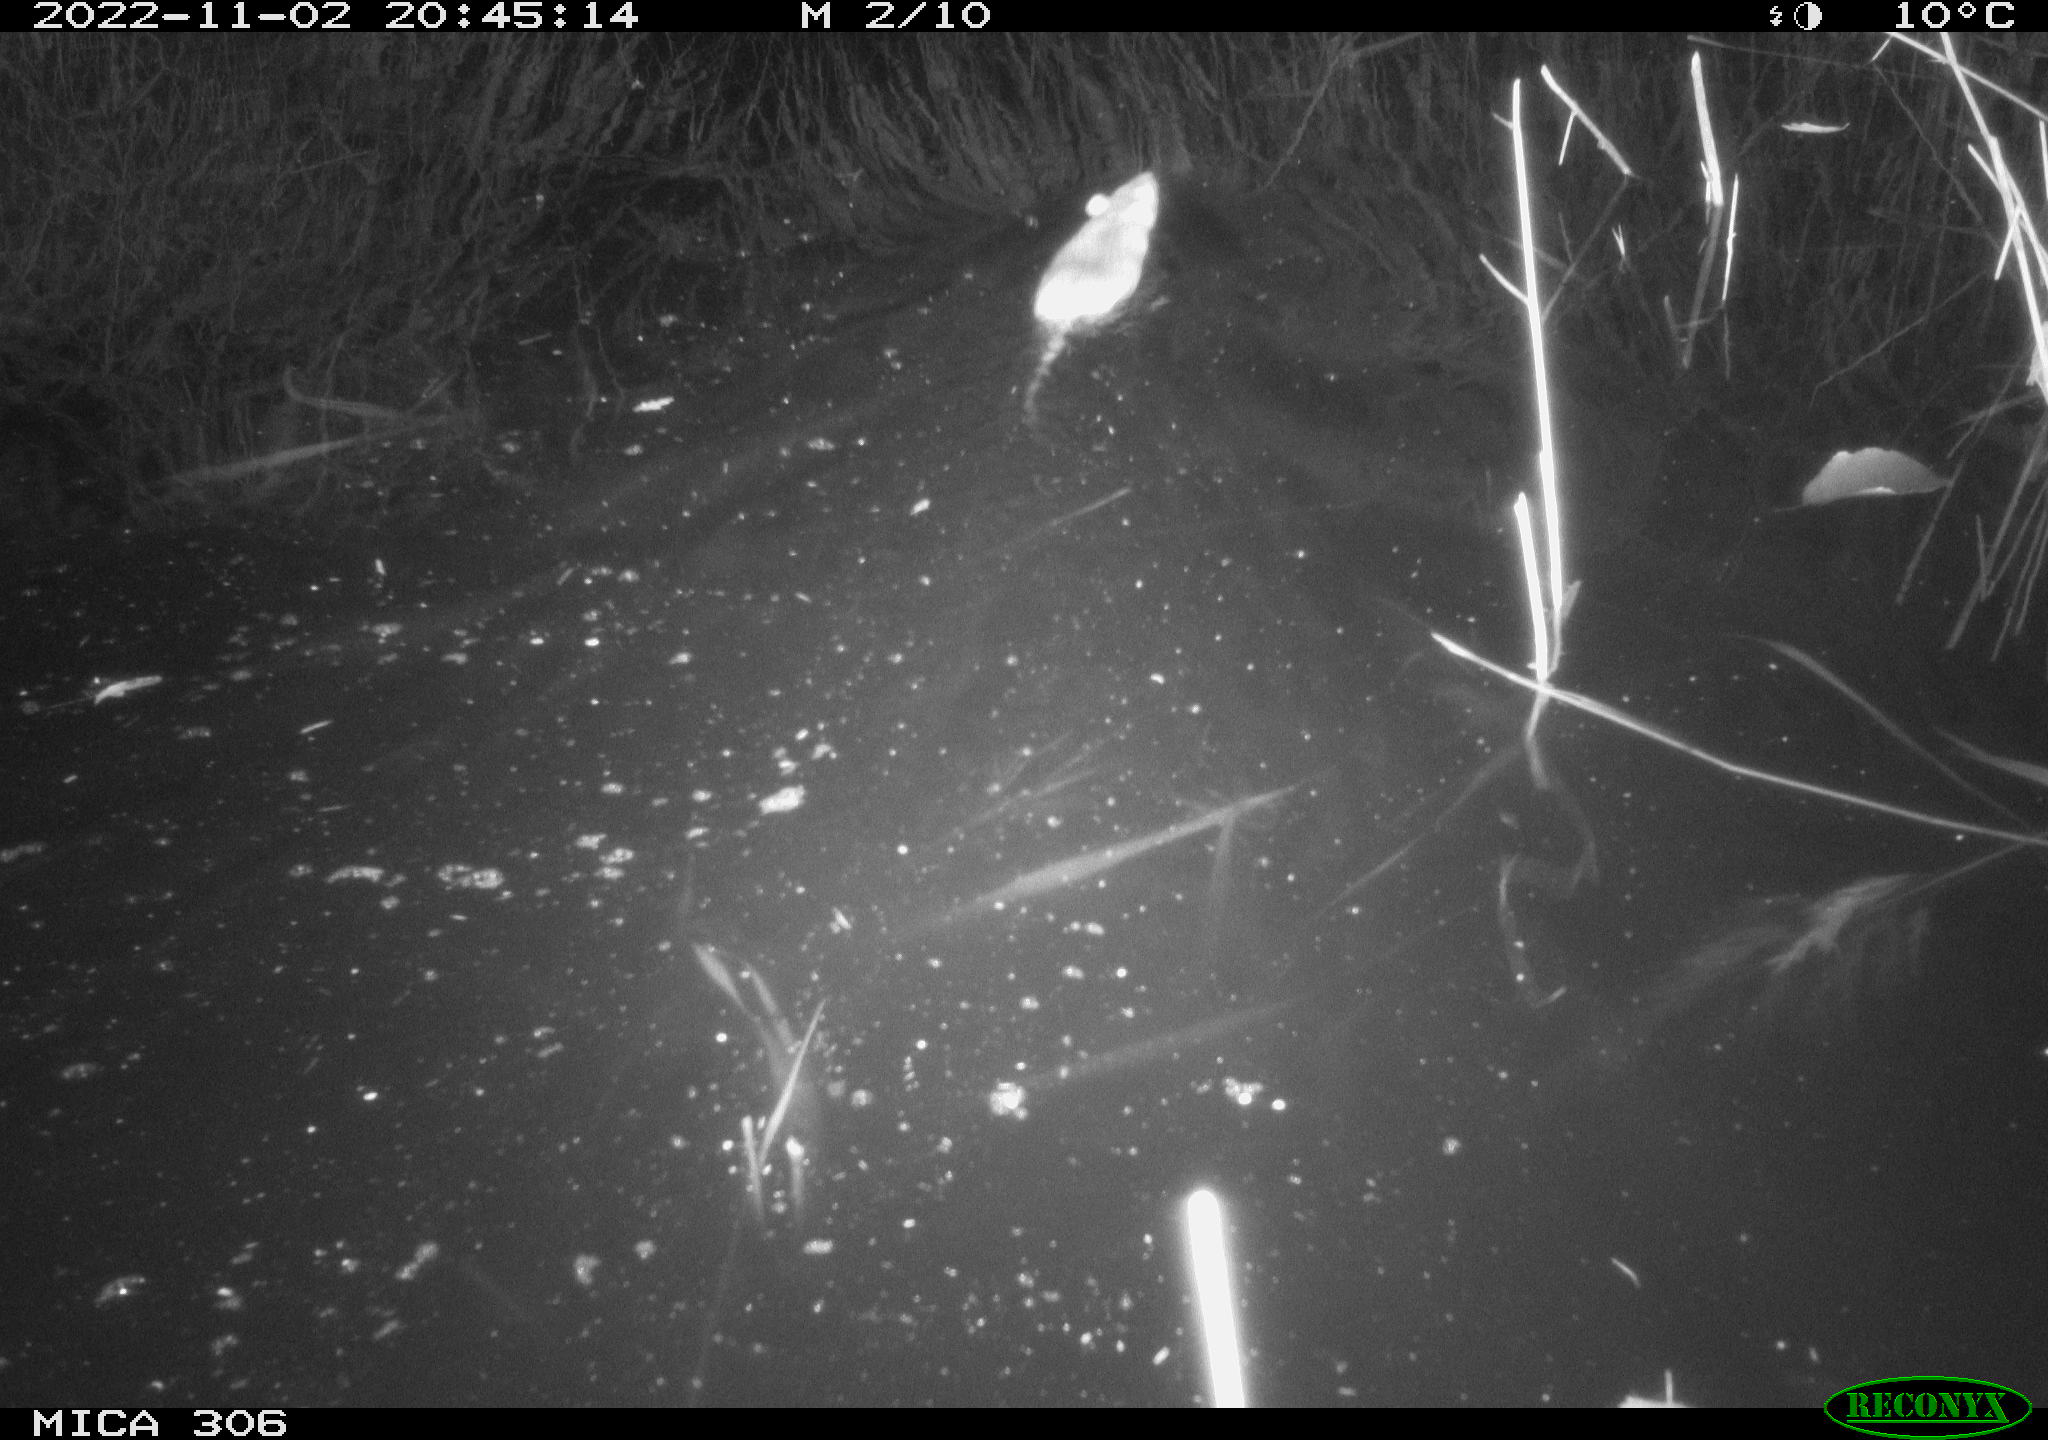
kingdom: Animalia
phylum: Chordata
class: Mammalia
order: Rodentia
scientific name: Rodentia
